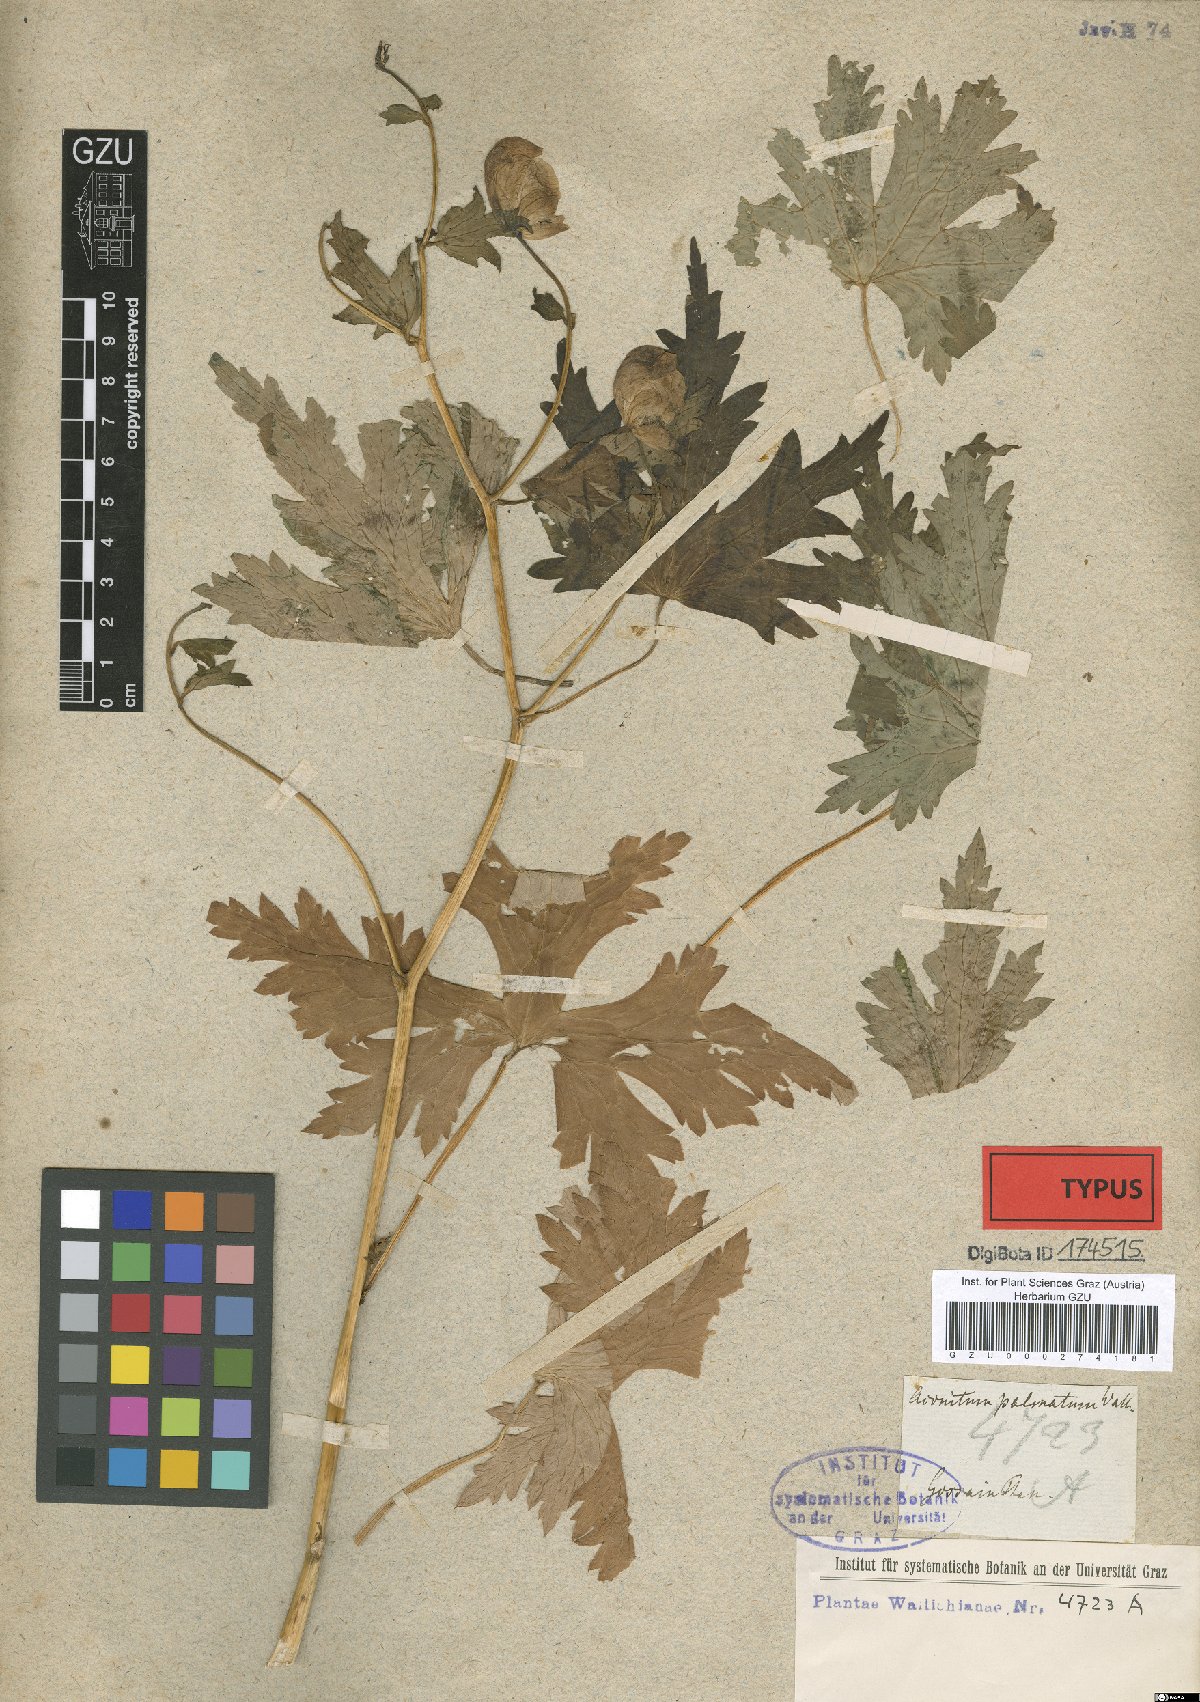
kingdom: Plantae
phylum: Tracheophyta
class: Magnoliopsida
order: Ranunculales
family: Ranunculaceae
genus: Aconitum
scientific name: Aconitum palmatum
